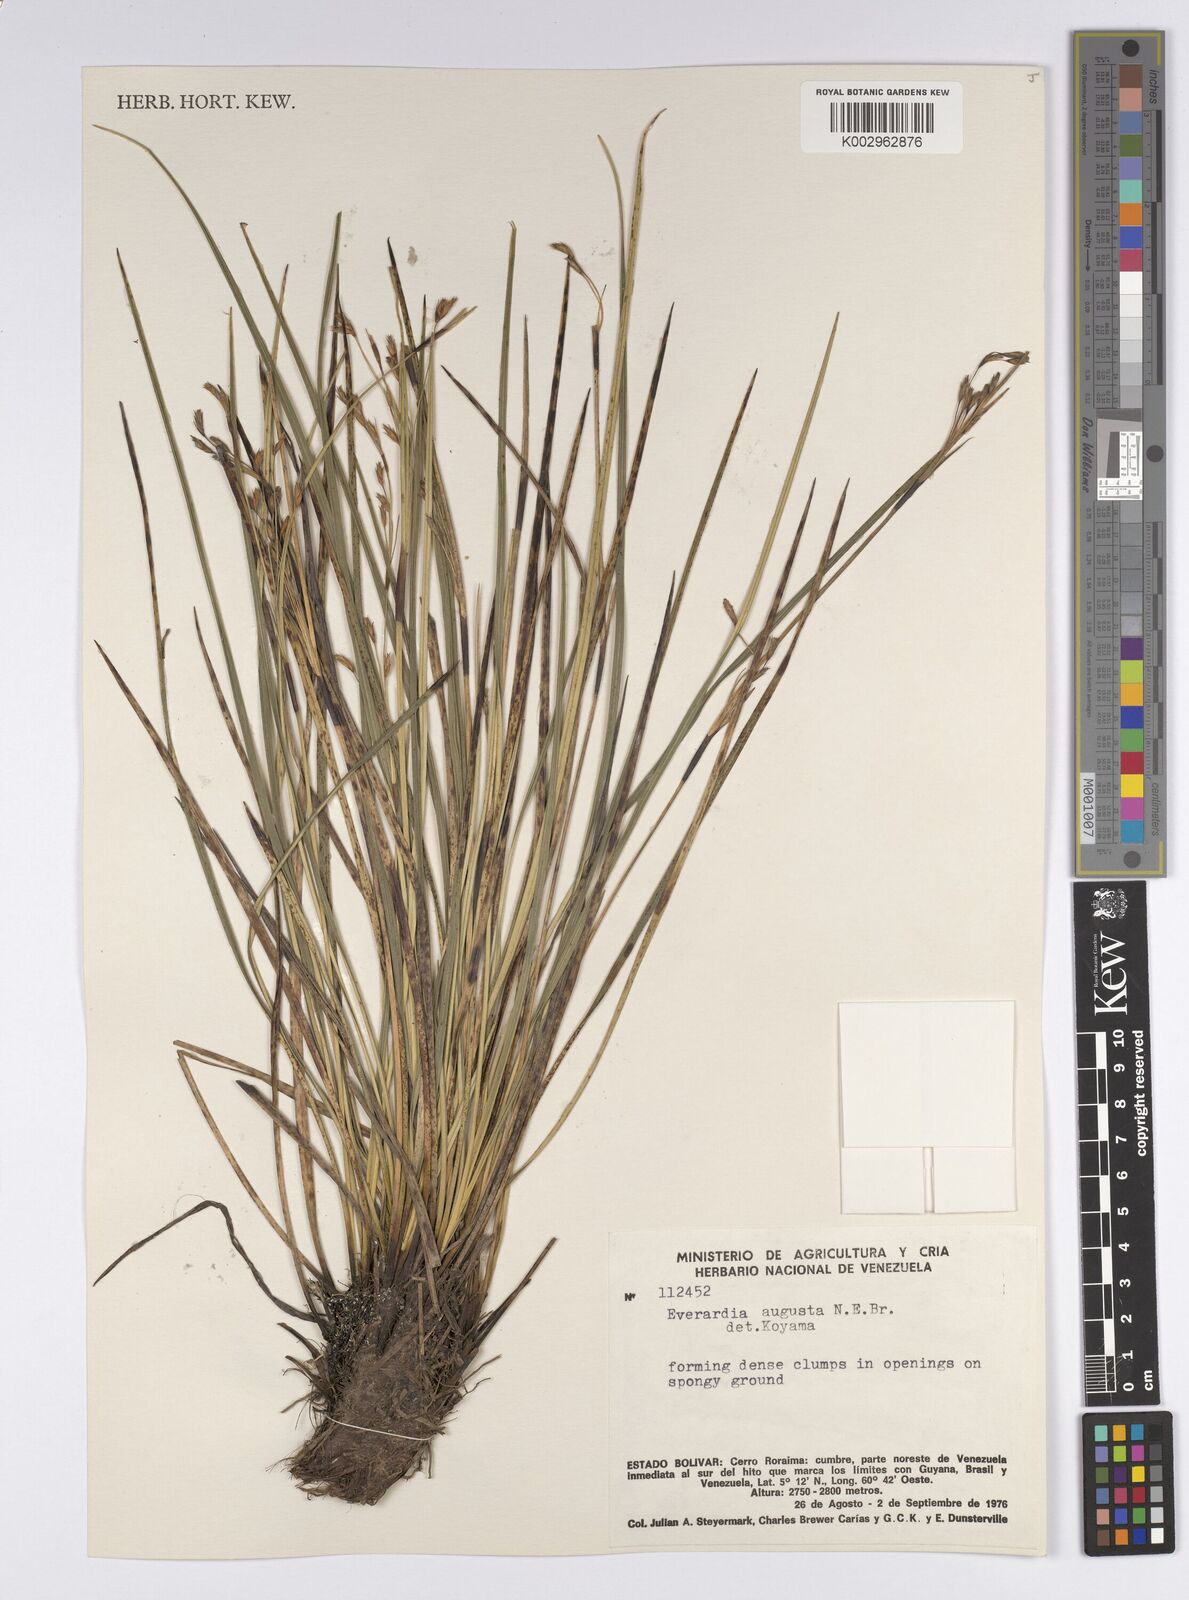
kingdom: Plantae
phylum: Tracheophyta
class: Liliopsida
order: Poales
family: Cyperaceae
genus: Cephalocarpus
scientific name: Cephalocarpus angustus
